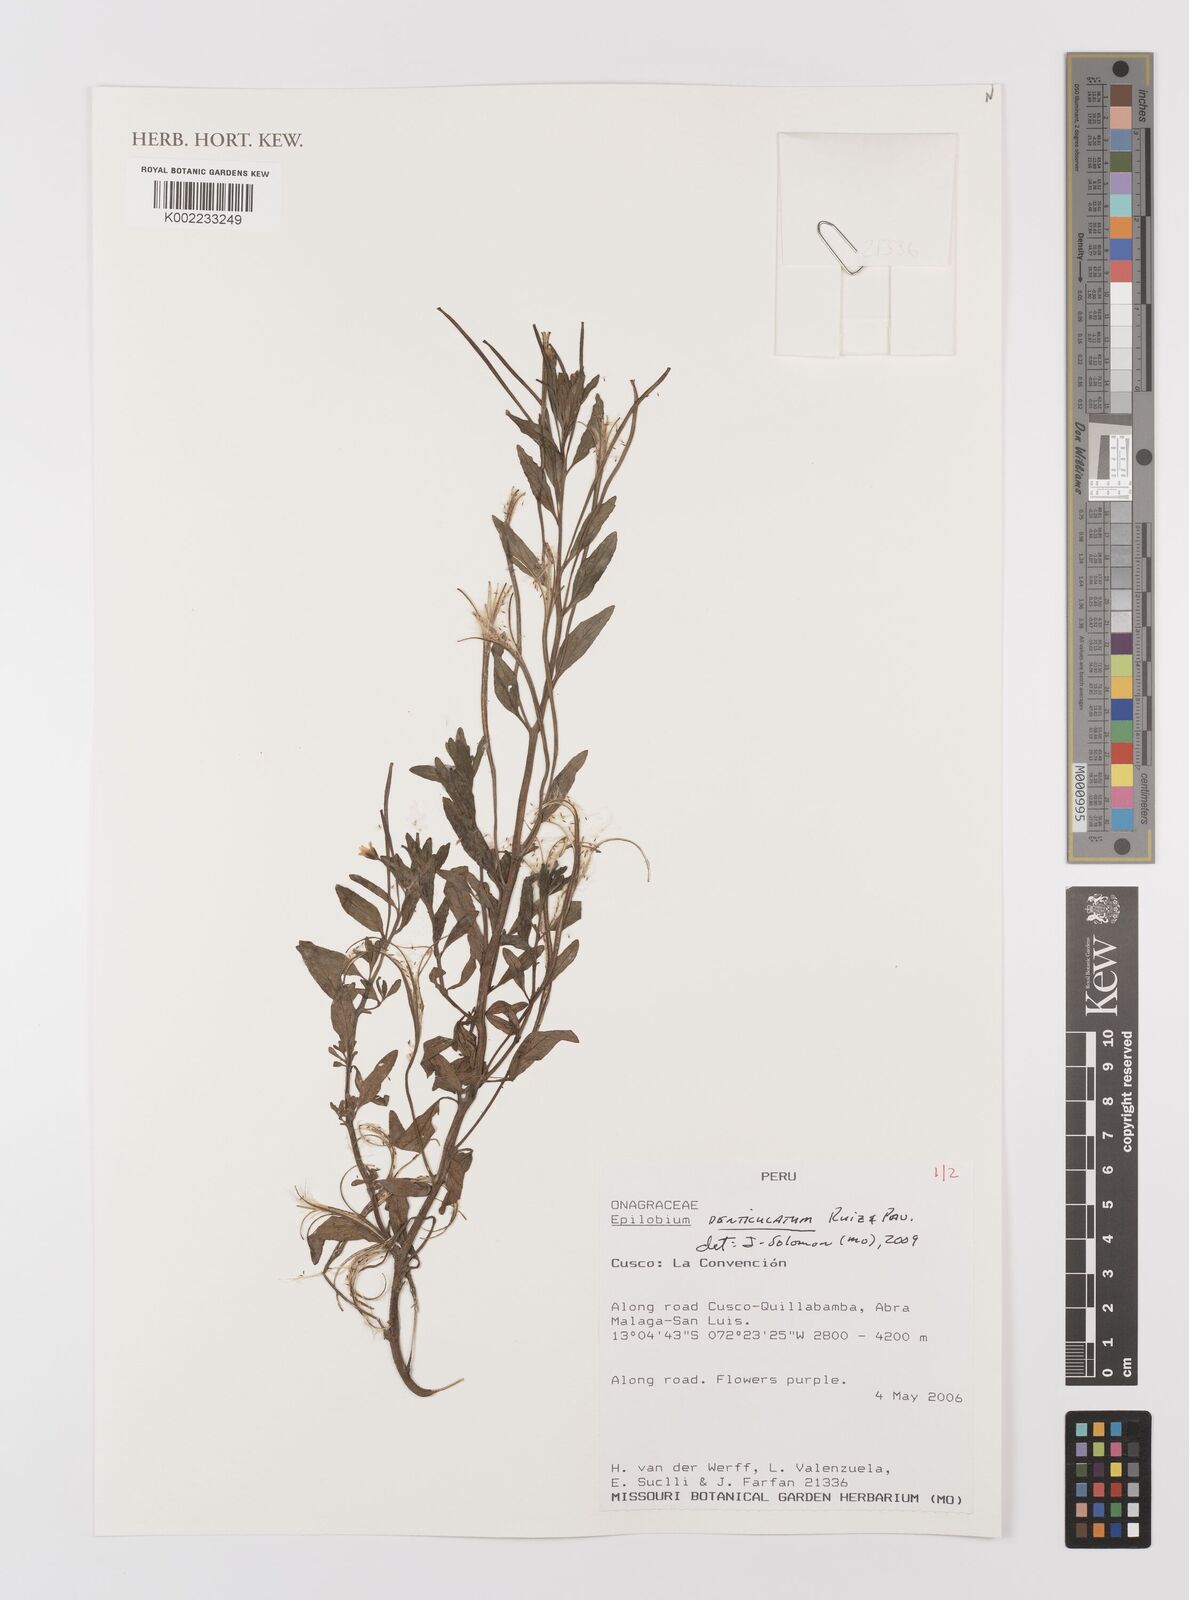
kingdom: Plantae
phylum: Tracheophyta
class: Magnoliopsida
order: Myrtales
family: Onagraceae
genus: Epilobium
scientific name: Epilobium denticulatum
